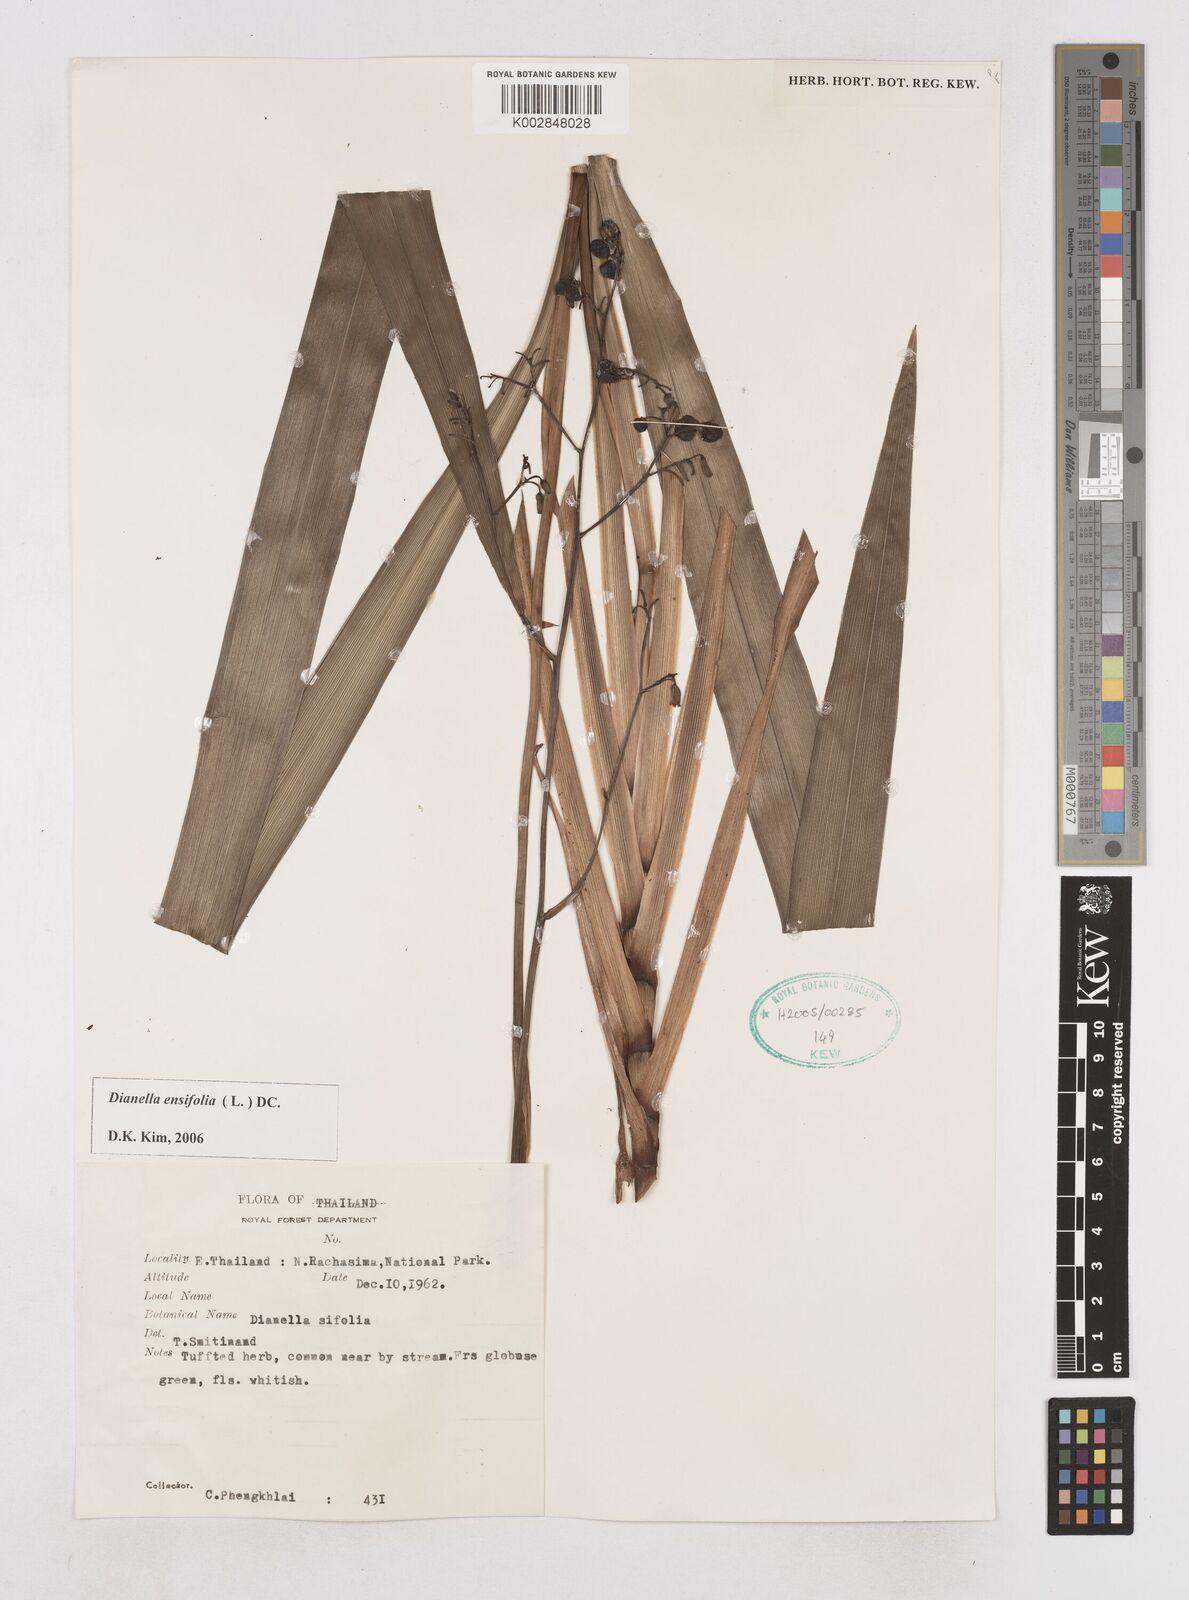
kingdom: Plantae
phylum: Tracheophyta
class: Liliopsida
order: Asparagales
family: Asphodelaceae
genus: Dianella
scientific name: Dianella ensifolia
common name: New zealand lilyplant
